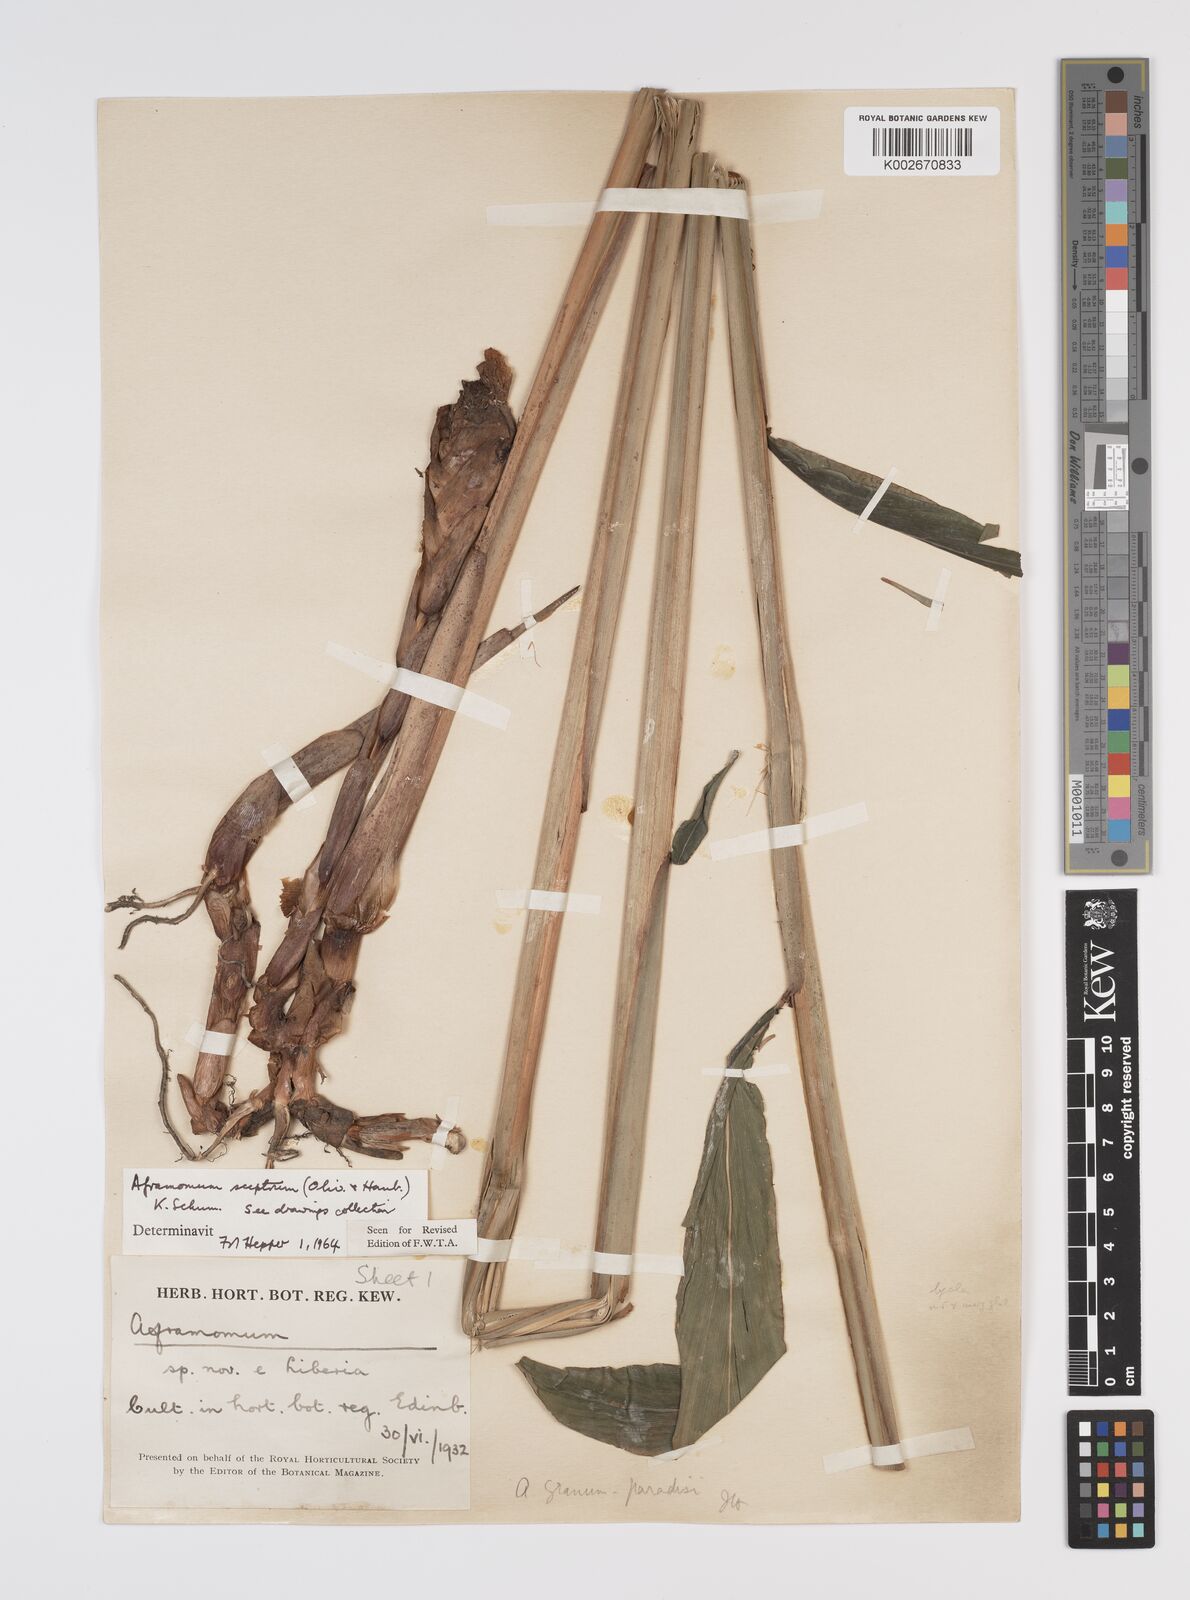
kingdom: Plantae
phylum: Tracheophyta
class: Liliopsida
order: Zingiberales
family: Zingiberaceae
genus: Aframomum
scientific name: Aframomum cereum
